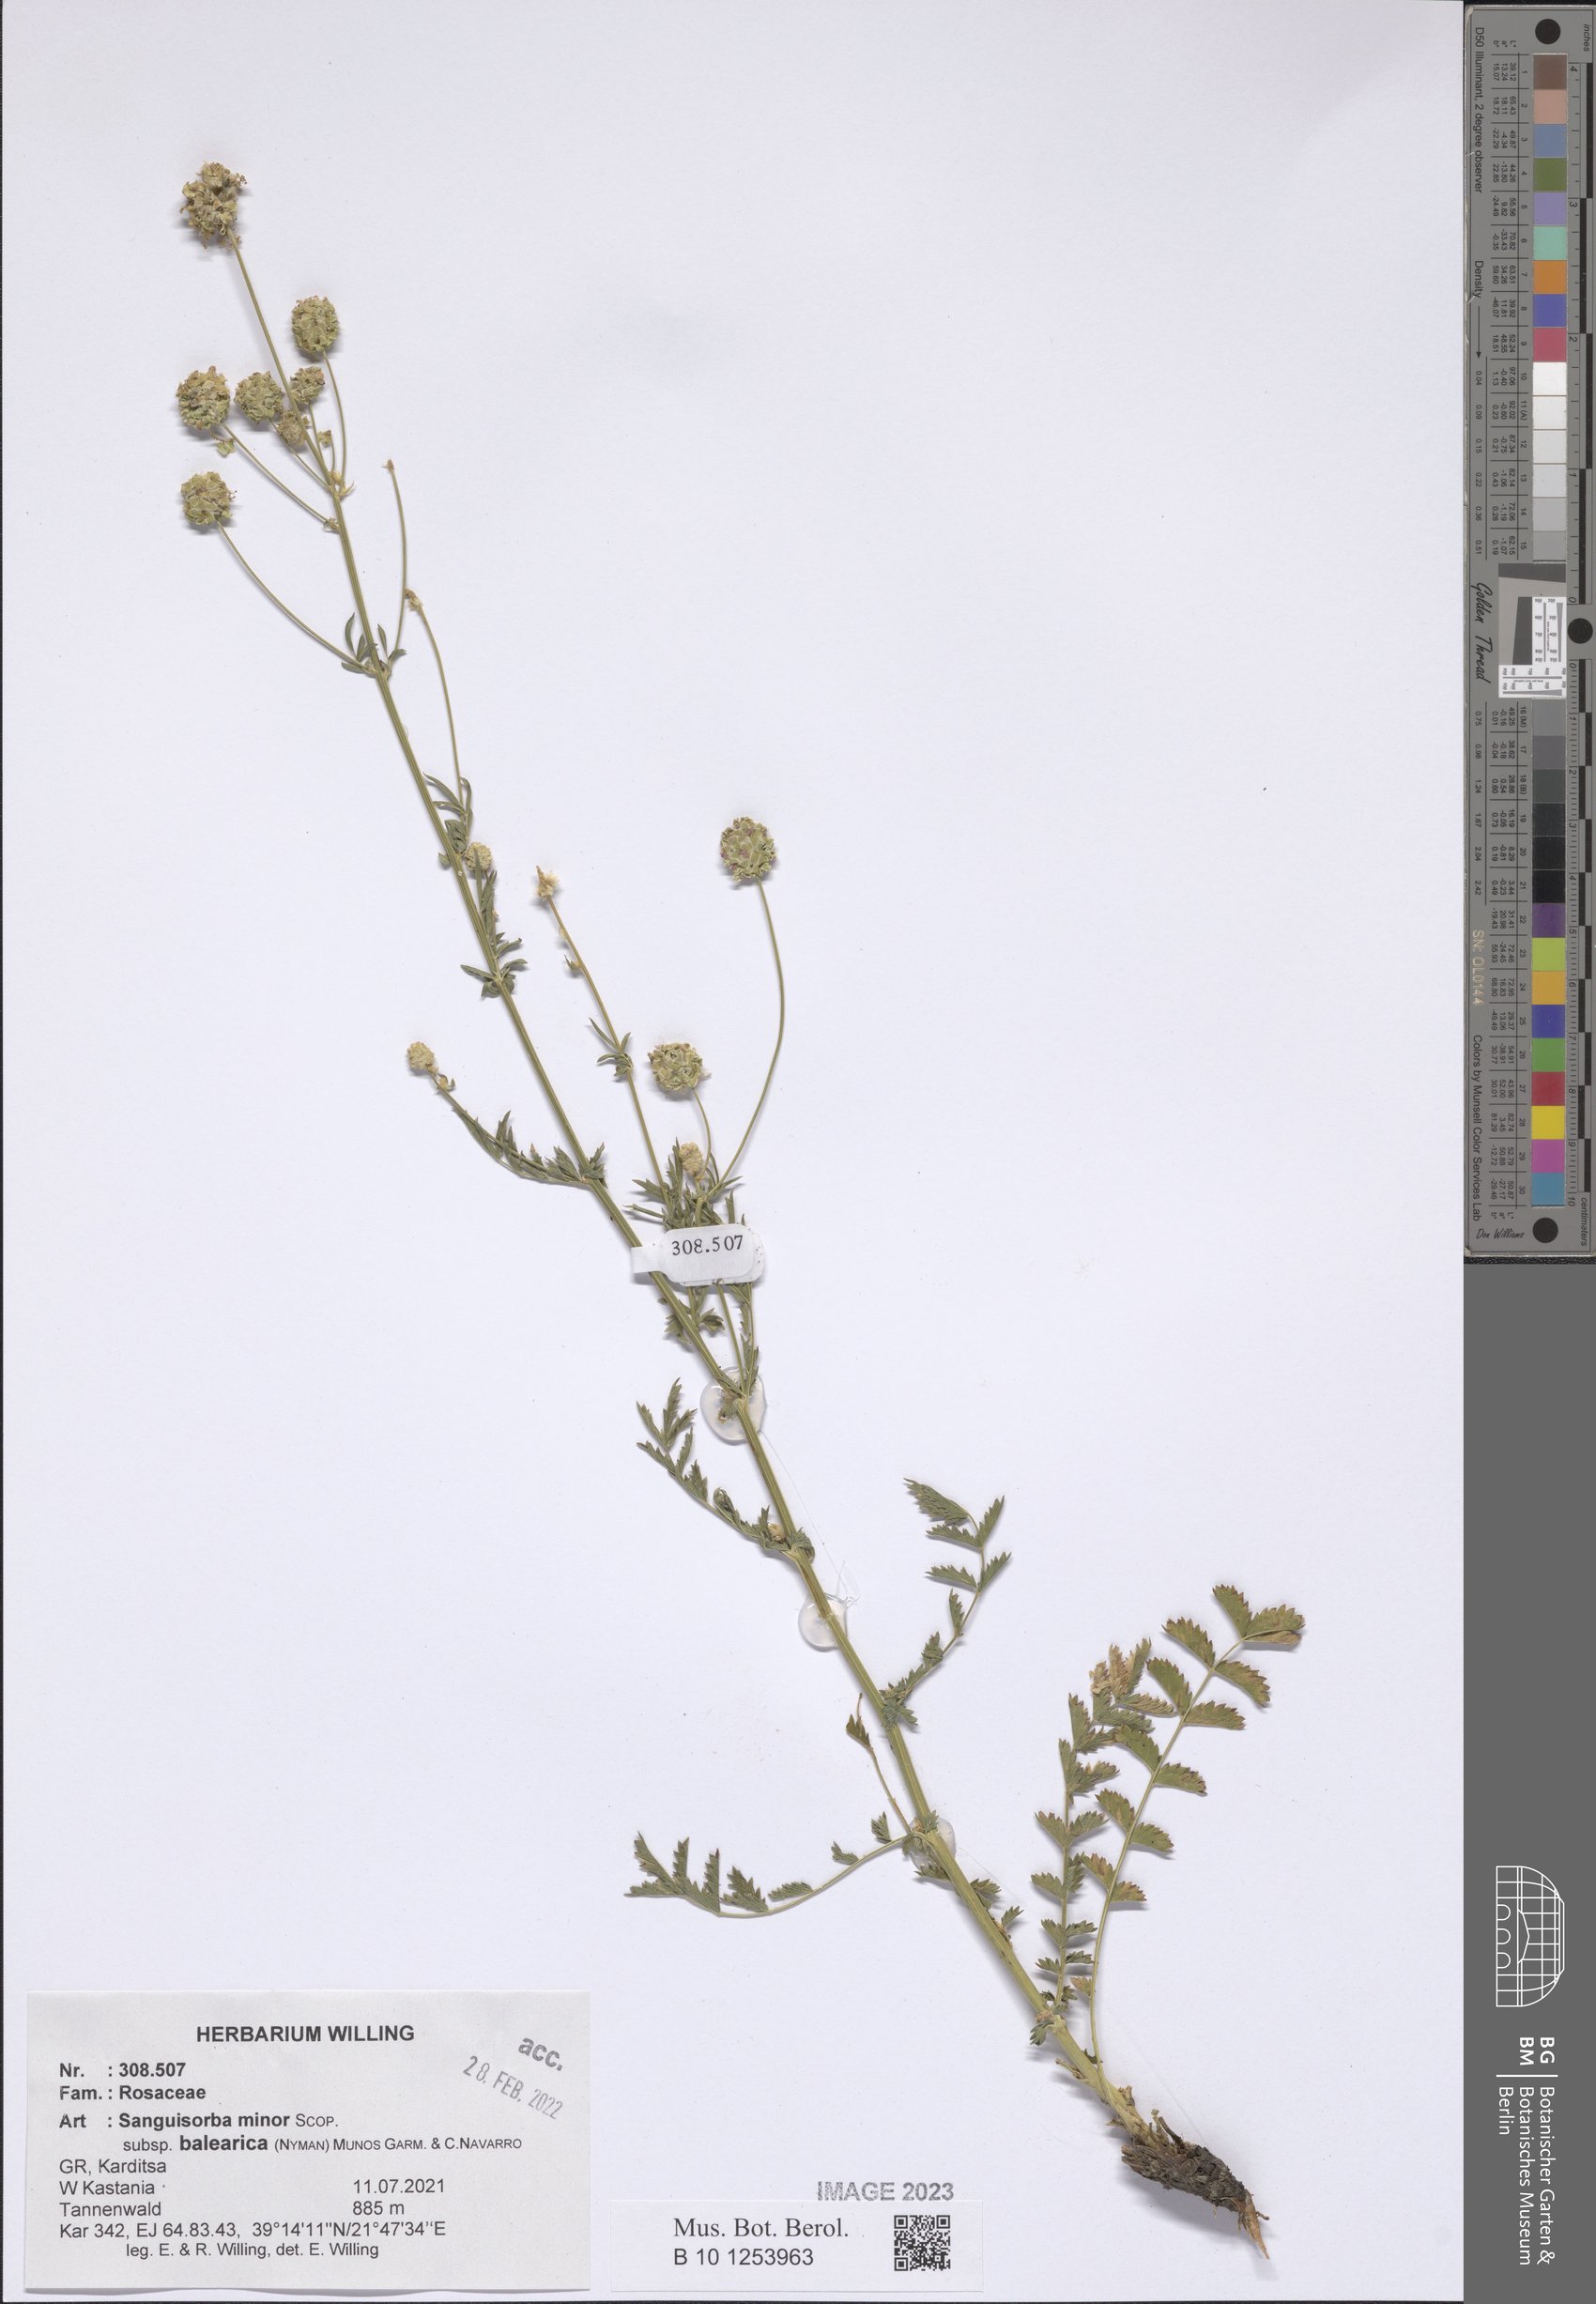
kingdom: Plantae
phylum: Tracheophyta
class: Magnoliopsida
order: Rosales
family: Rosaceae
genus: Poterium
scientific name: Poterium sanguisorba
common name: Salad burnet
